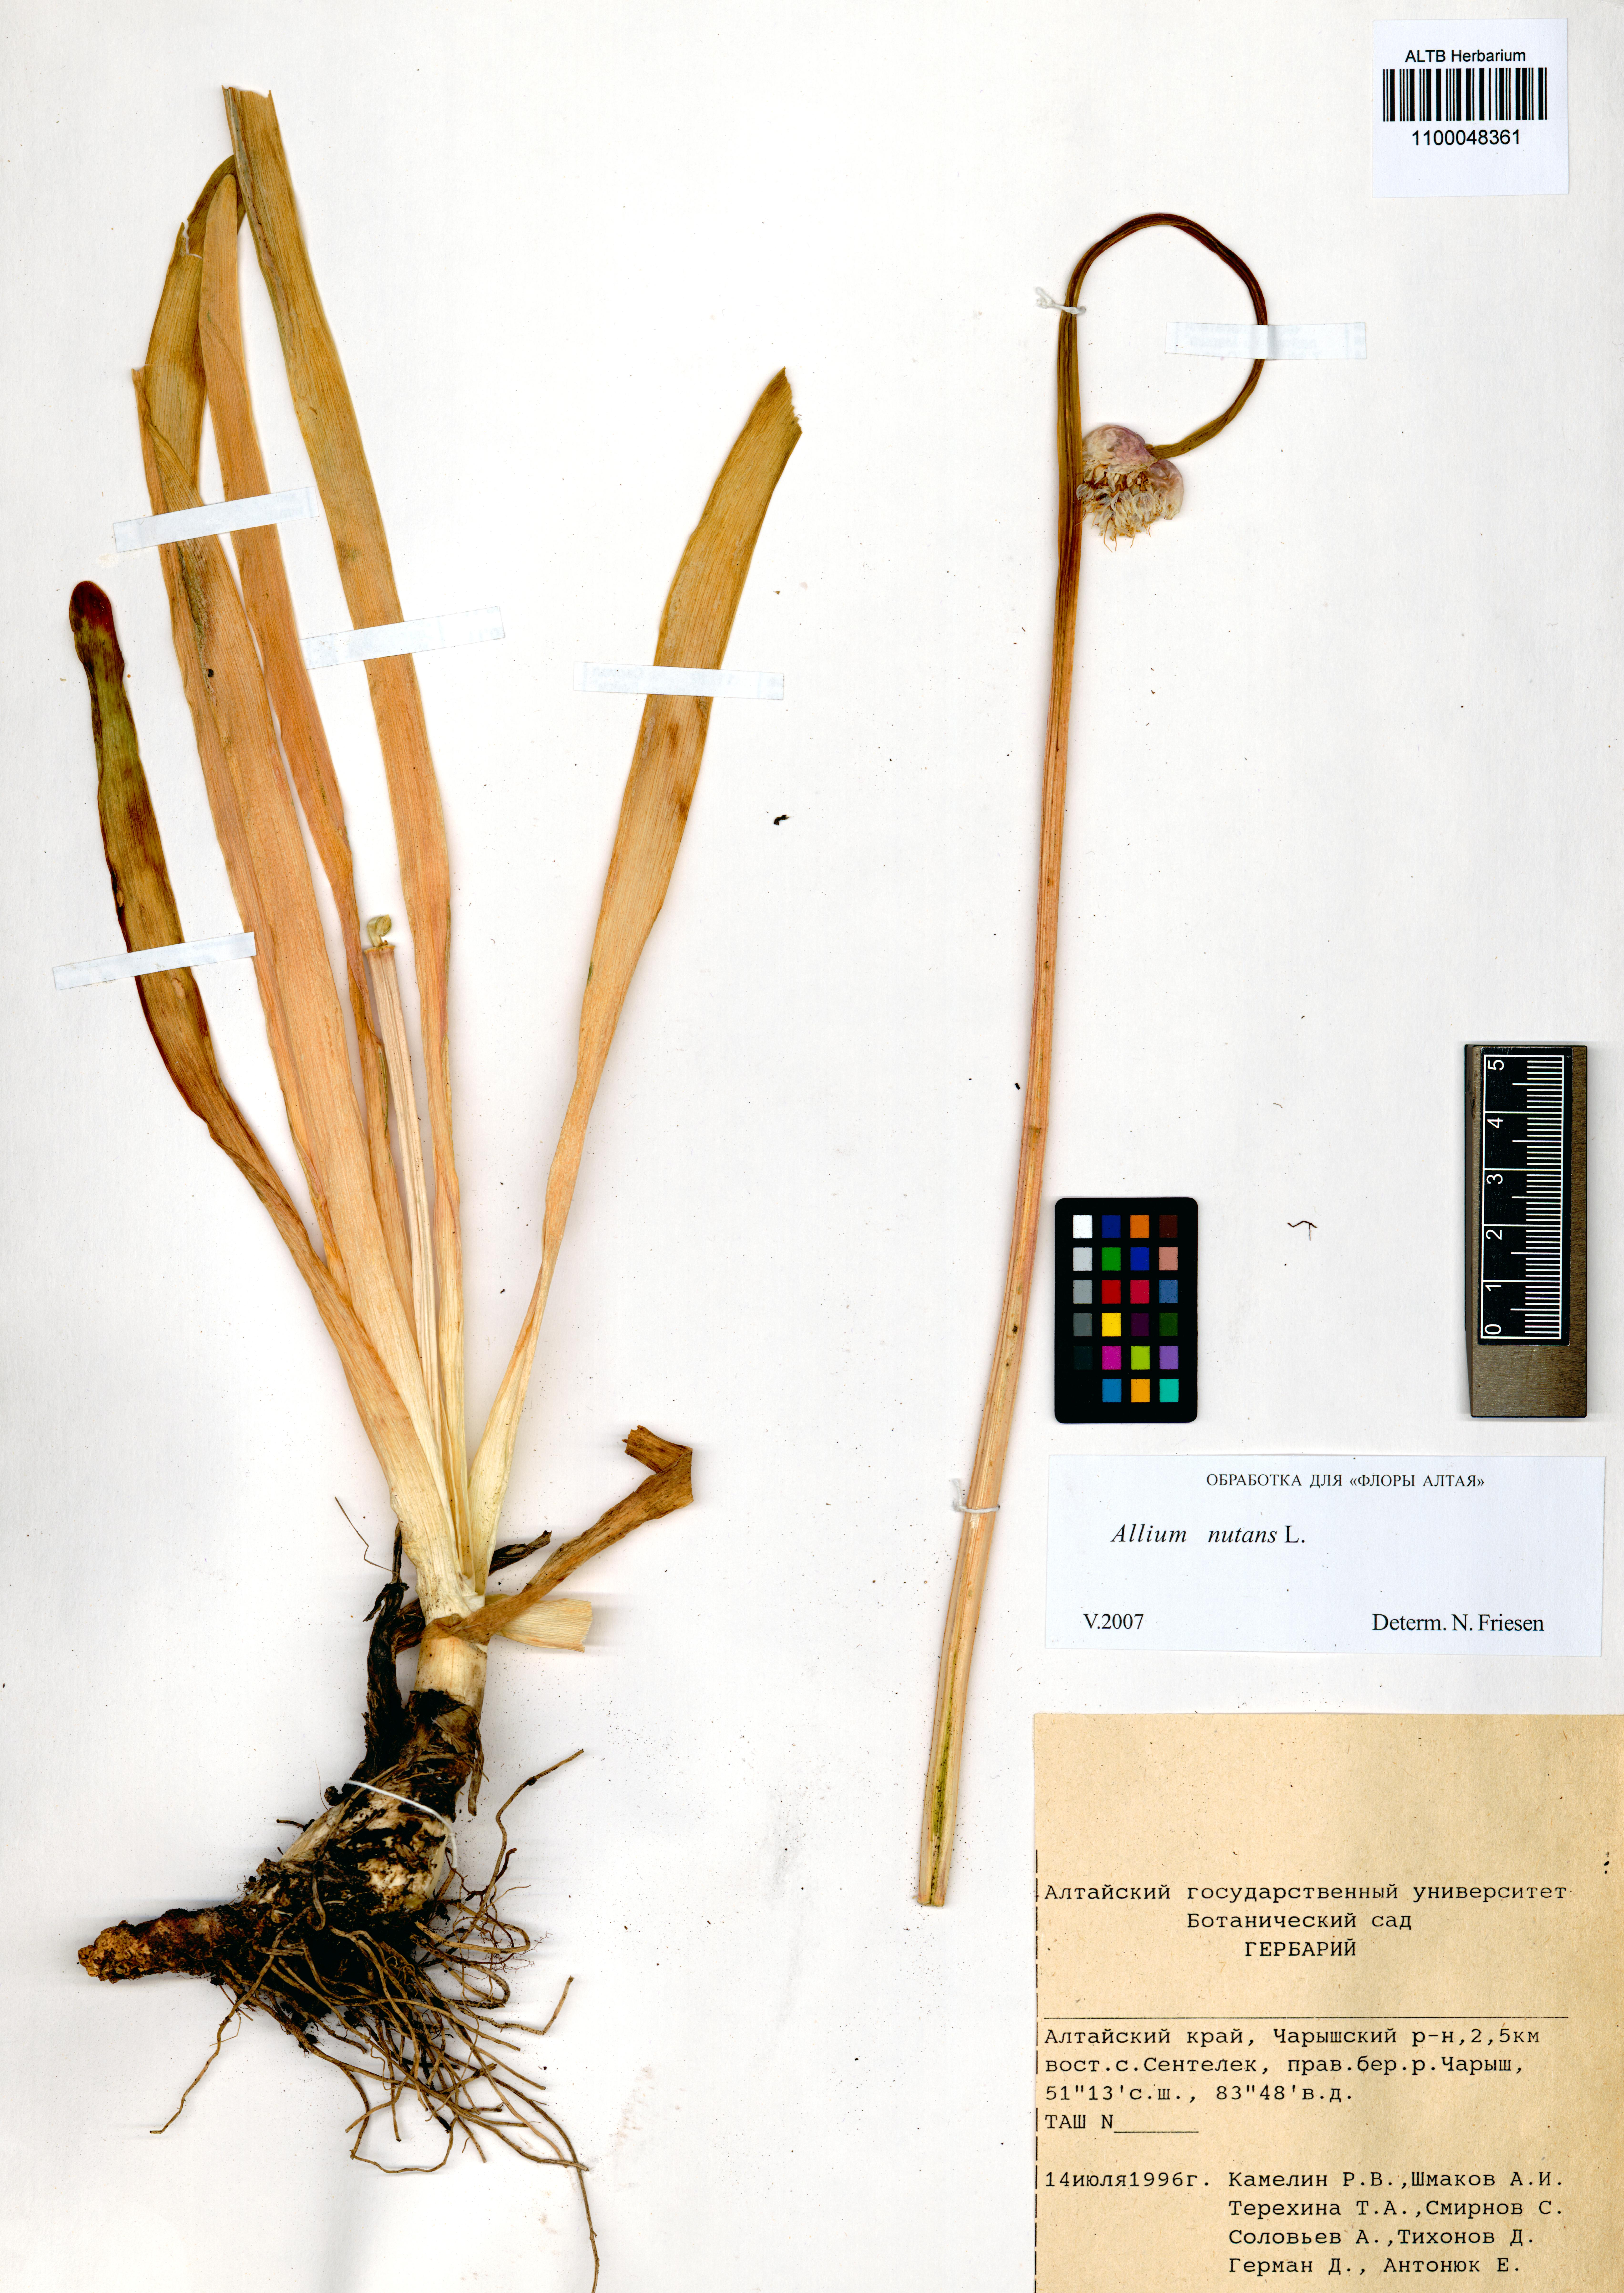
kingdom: Plantae
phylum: Tracheophyta
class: Liliopsida
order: Asparagales
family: Amaryllidaceae
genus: Allium
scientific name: Allium nutans
